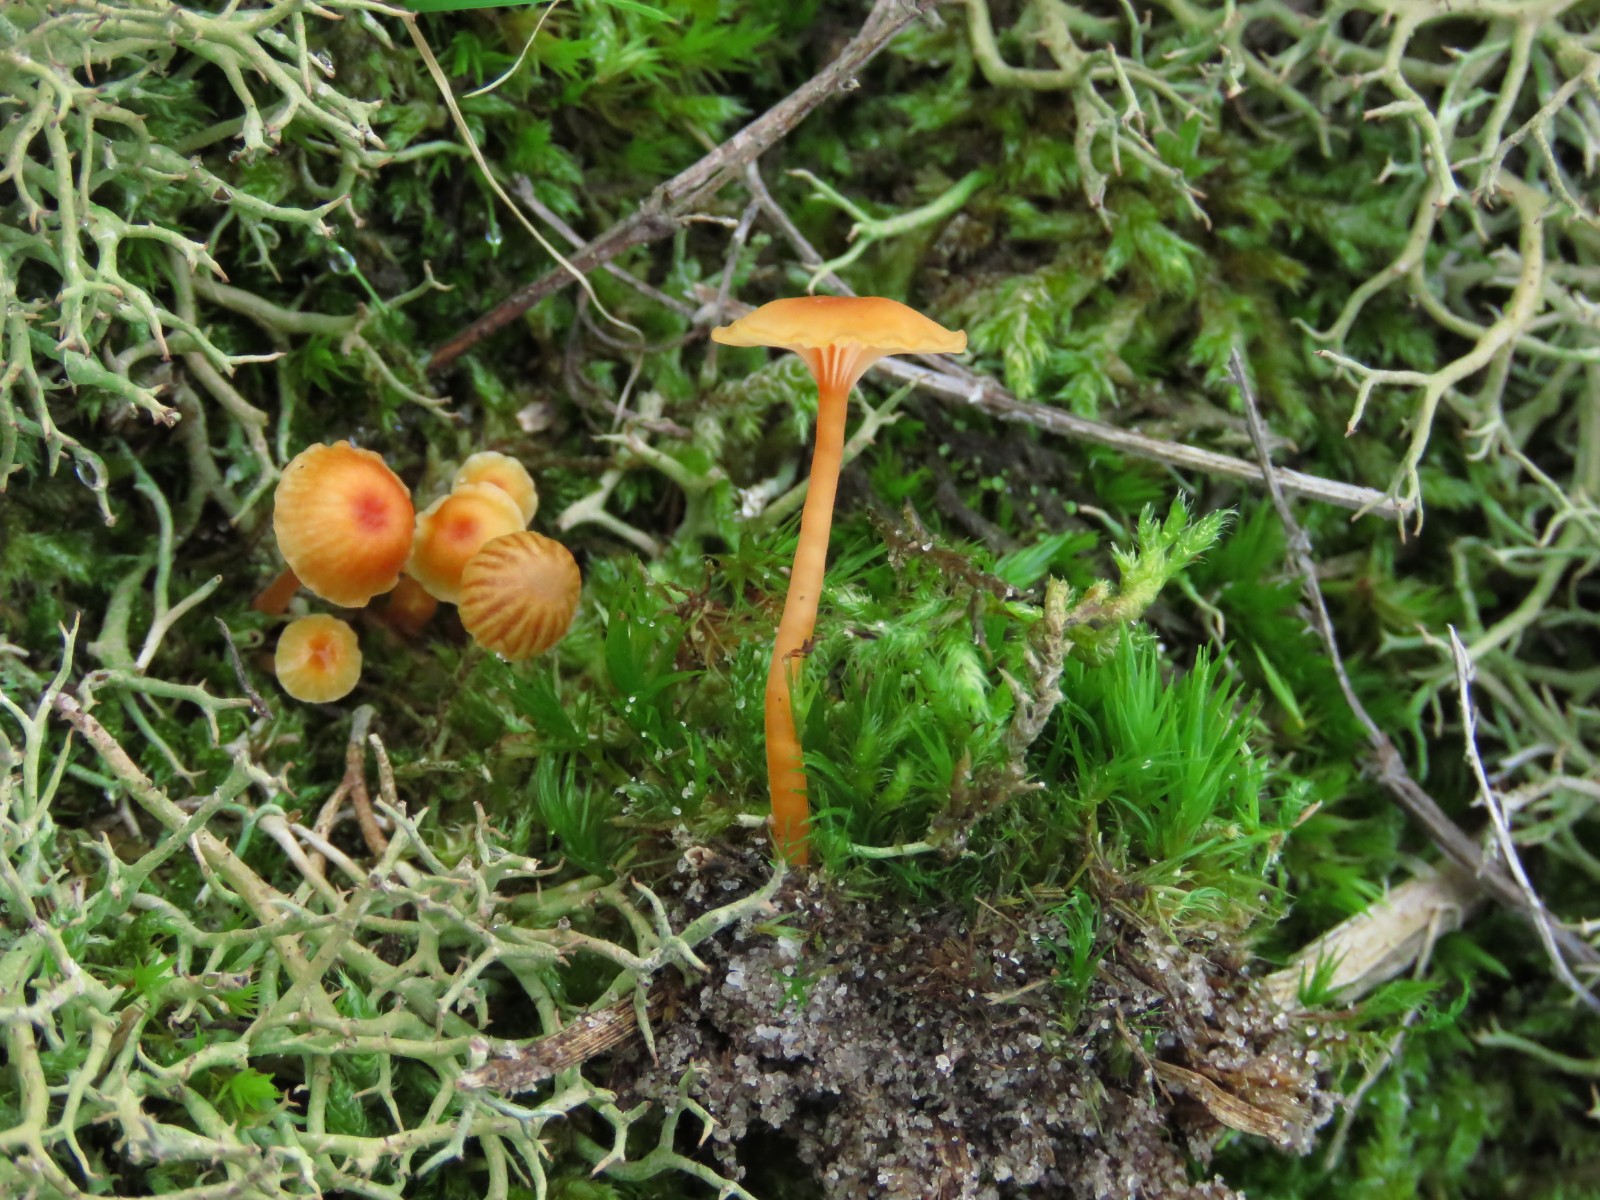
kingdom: Fungi
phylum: Basidiomycota
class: Agaricomycetes
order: Hymenochaetales
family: Rickenellaceae
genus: Rickenella
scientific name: Rickenella fibula
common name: orange mosnavlehat
